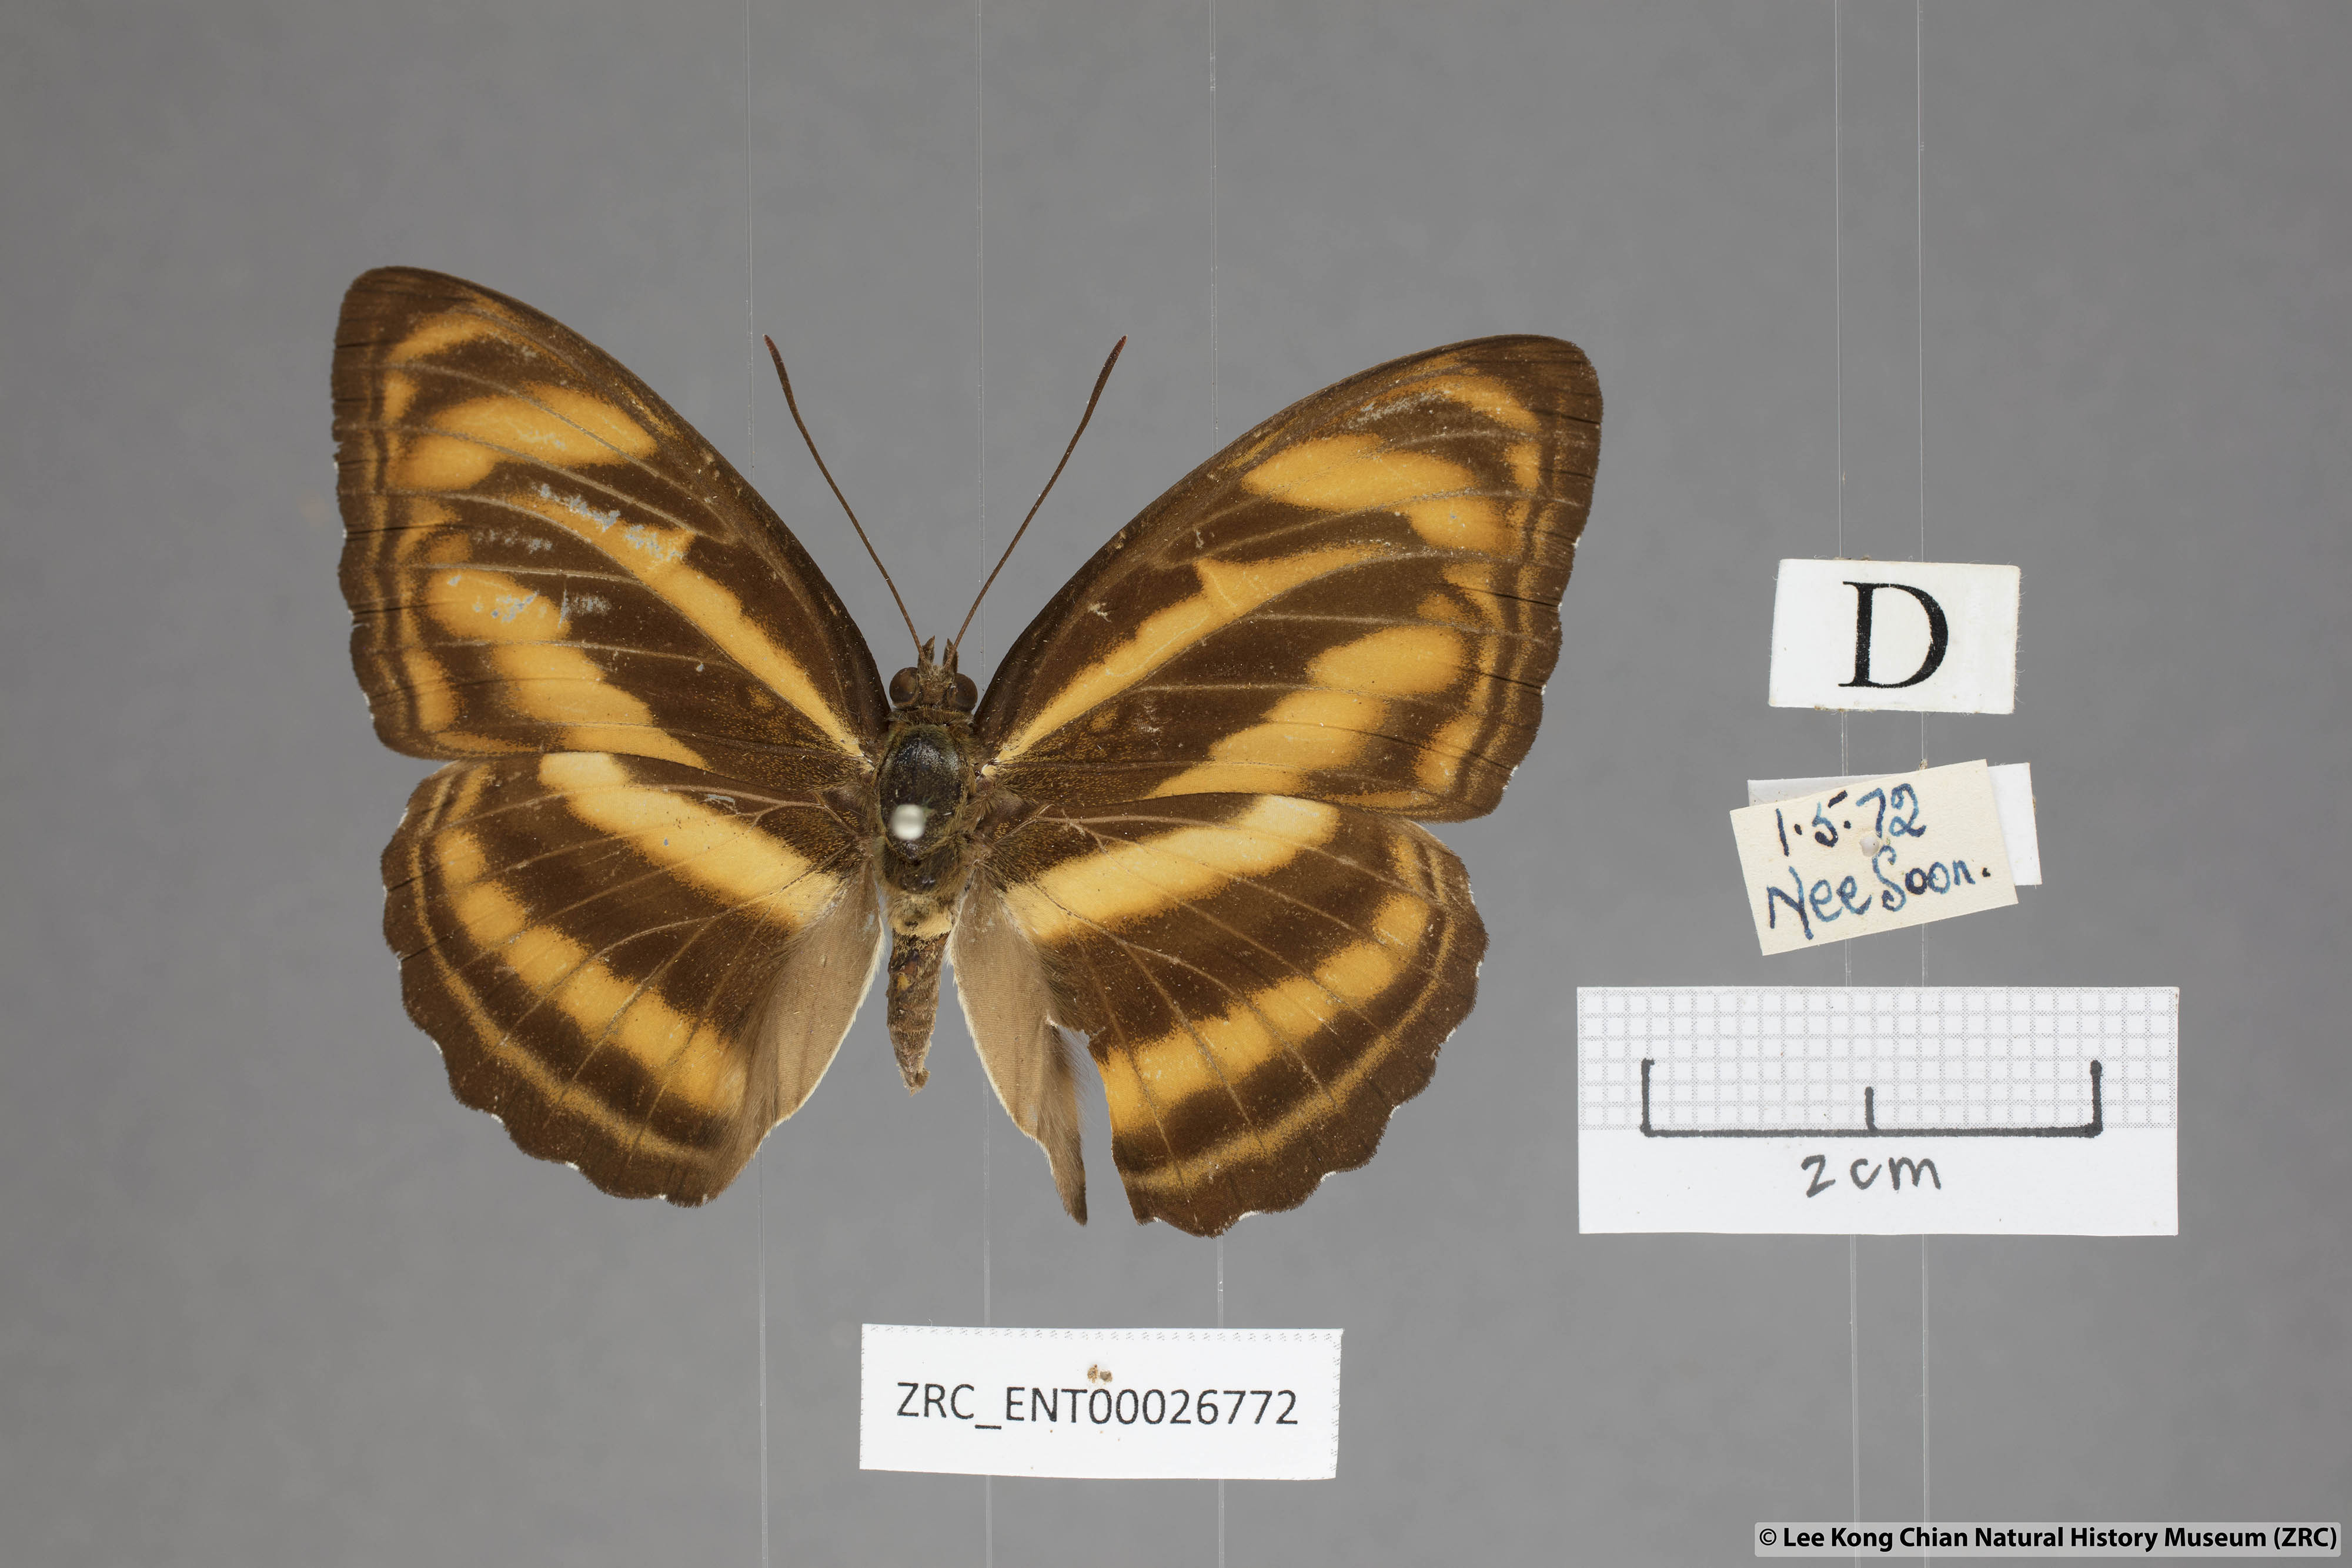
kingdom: Animalia
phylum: Arthropoda
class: Insecta
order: Lepidoptera
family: Nymphalidae
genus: Parathyma
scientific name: Parathyma nefte
